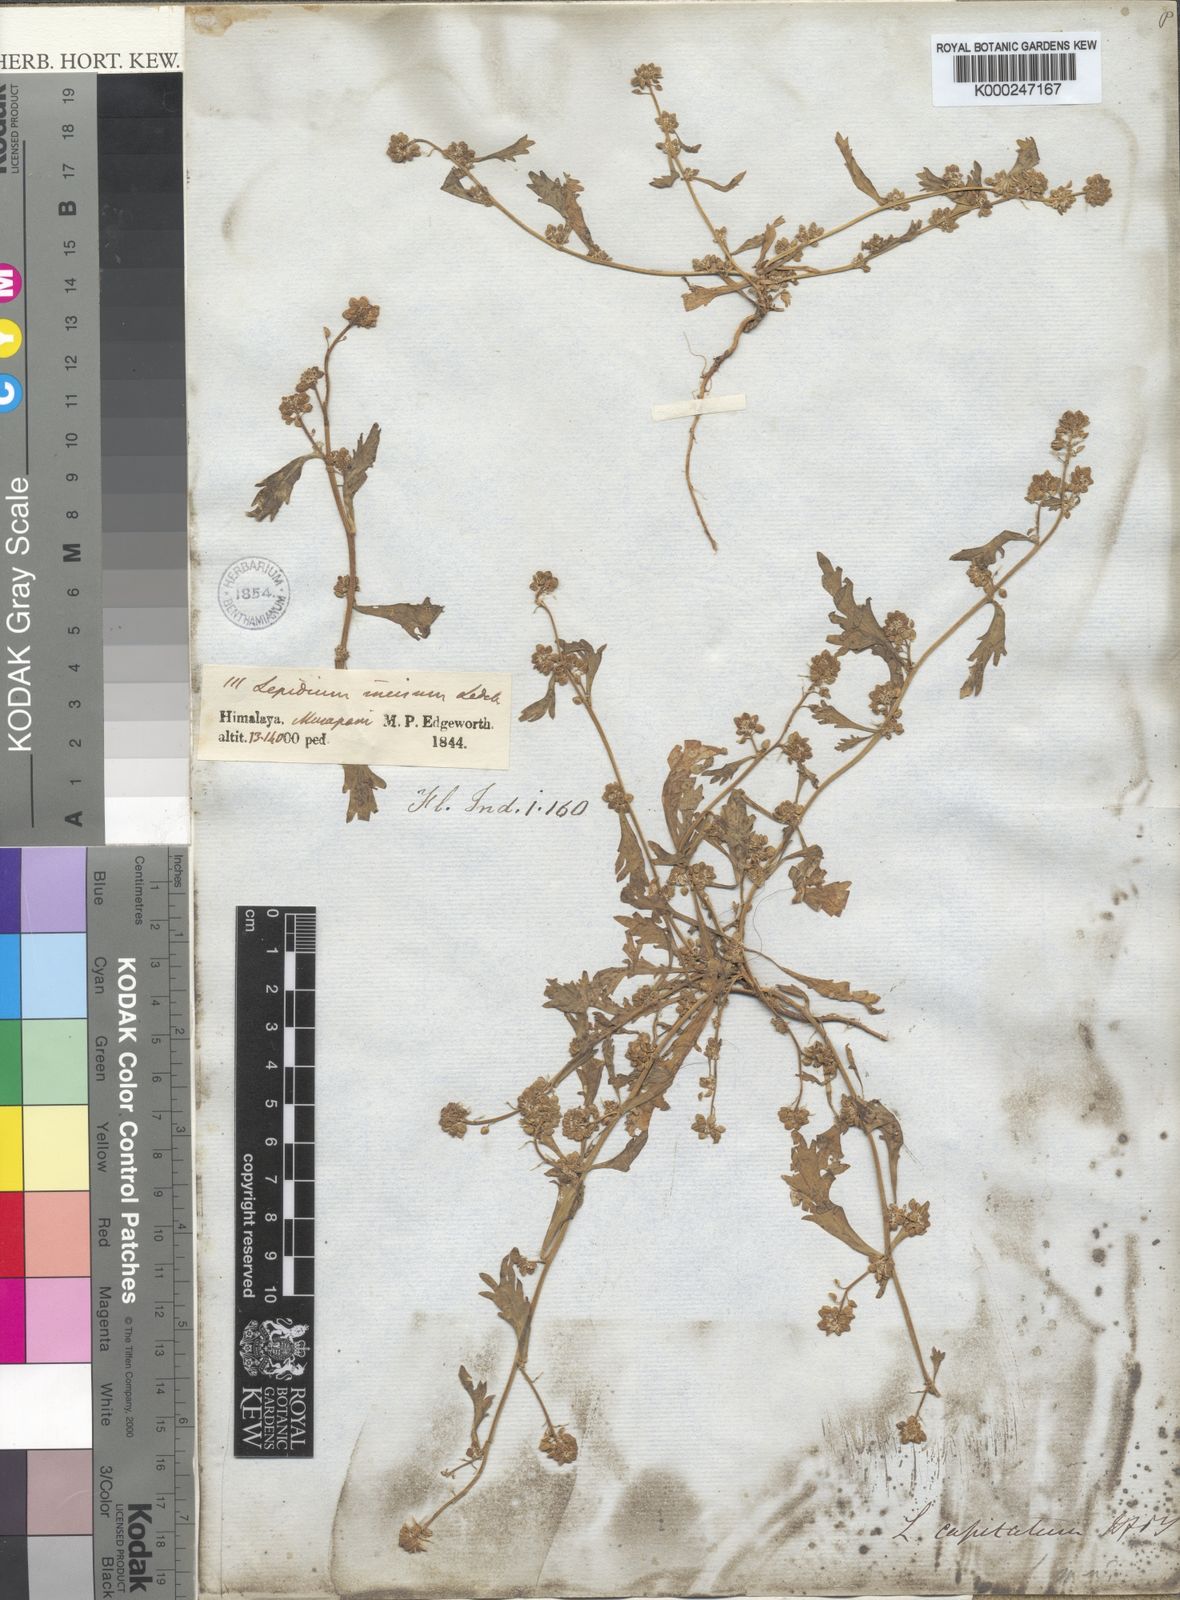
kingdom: Plantae
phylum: Tracheophyta
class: Magnoliopsida
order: Brassicales
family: Brassicaceae
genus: Lepidium
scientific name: Lepidium capitatum
